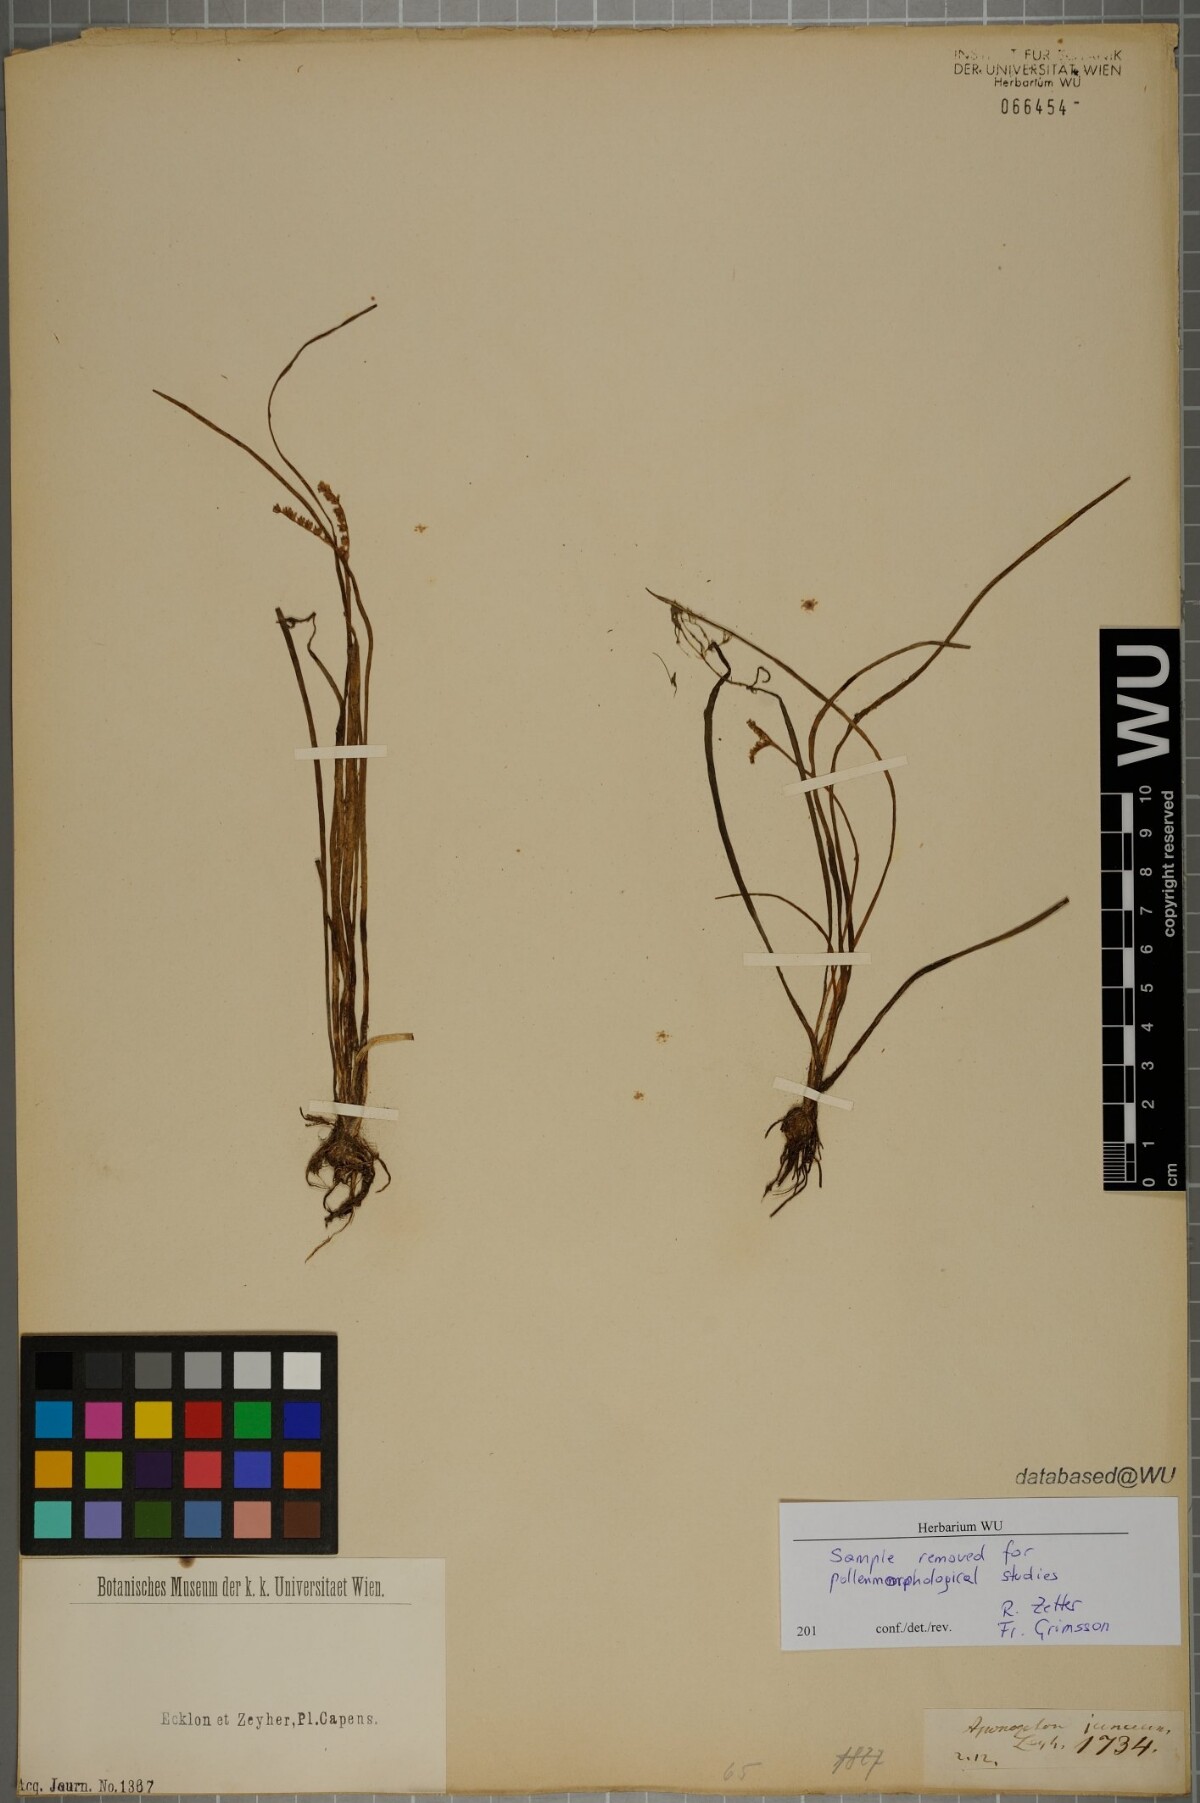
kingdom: Plantae
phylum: Tracheophyta
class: Liliopsida
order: Alismatales
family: Aponogetonaceae
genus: Aponogeton
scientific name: Aponogeton junceus
